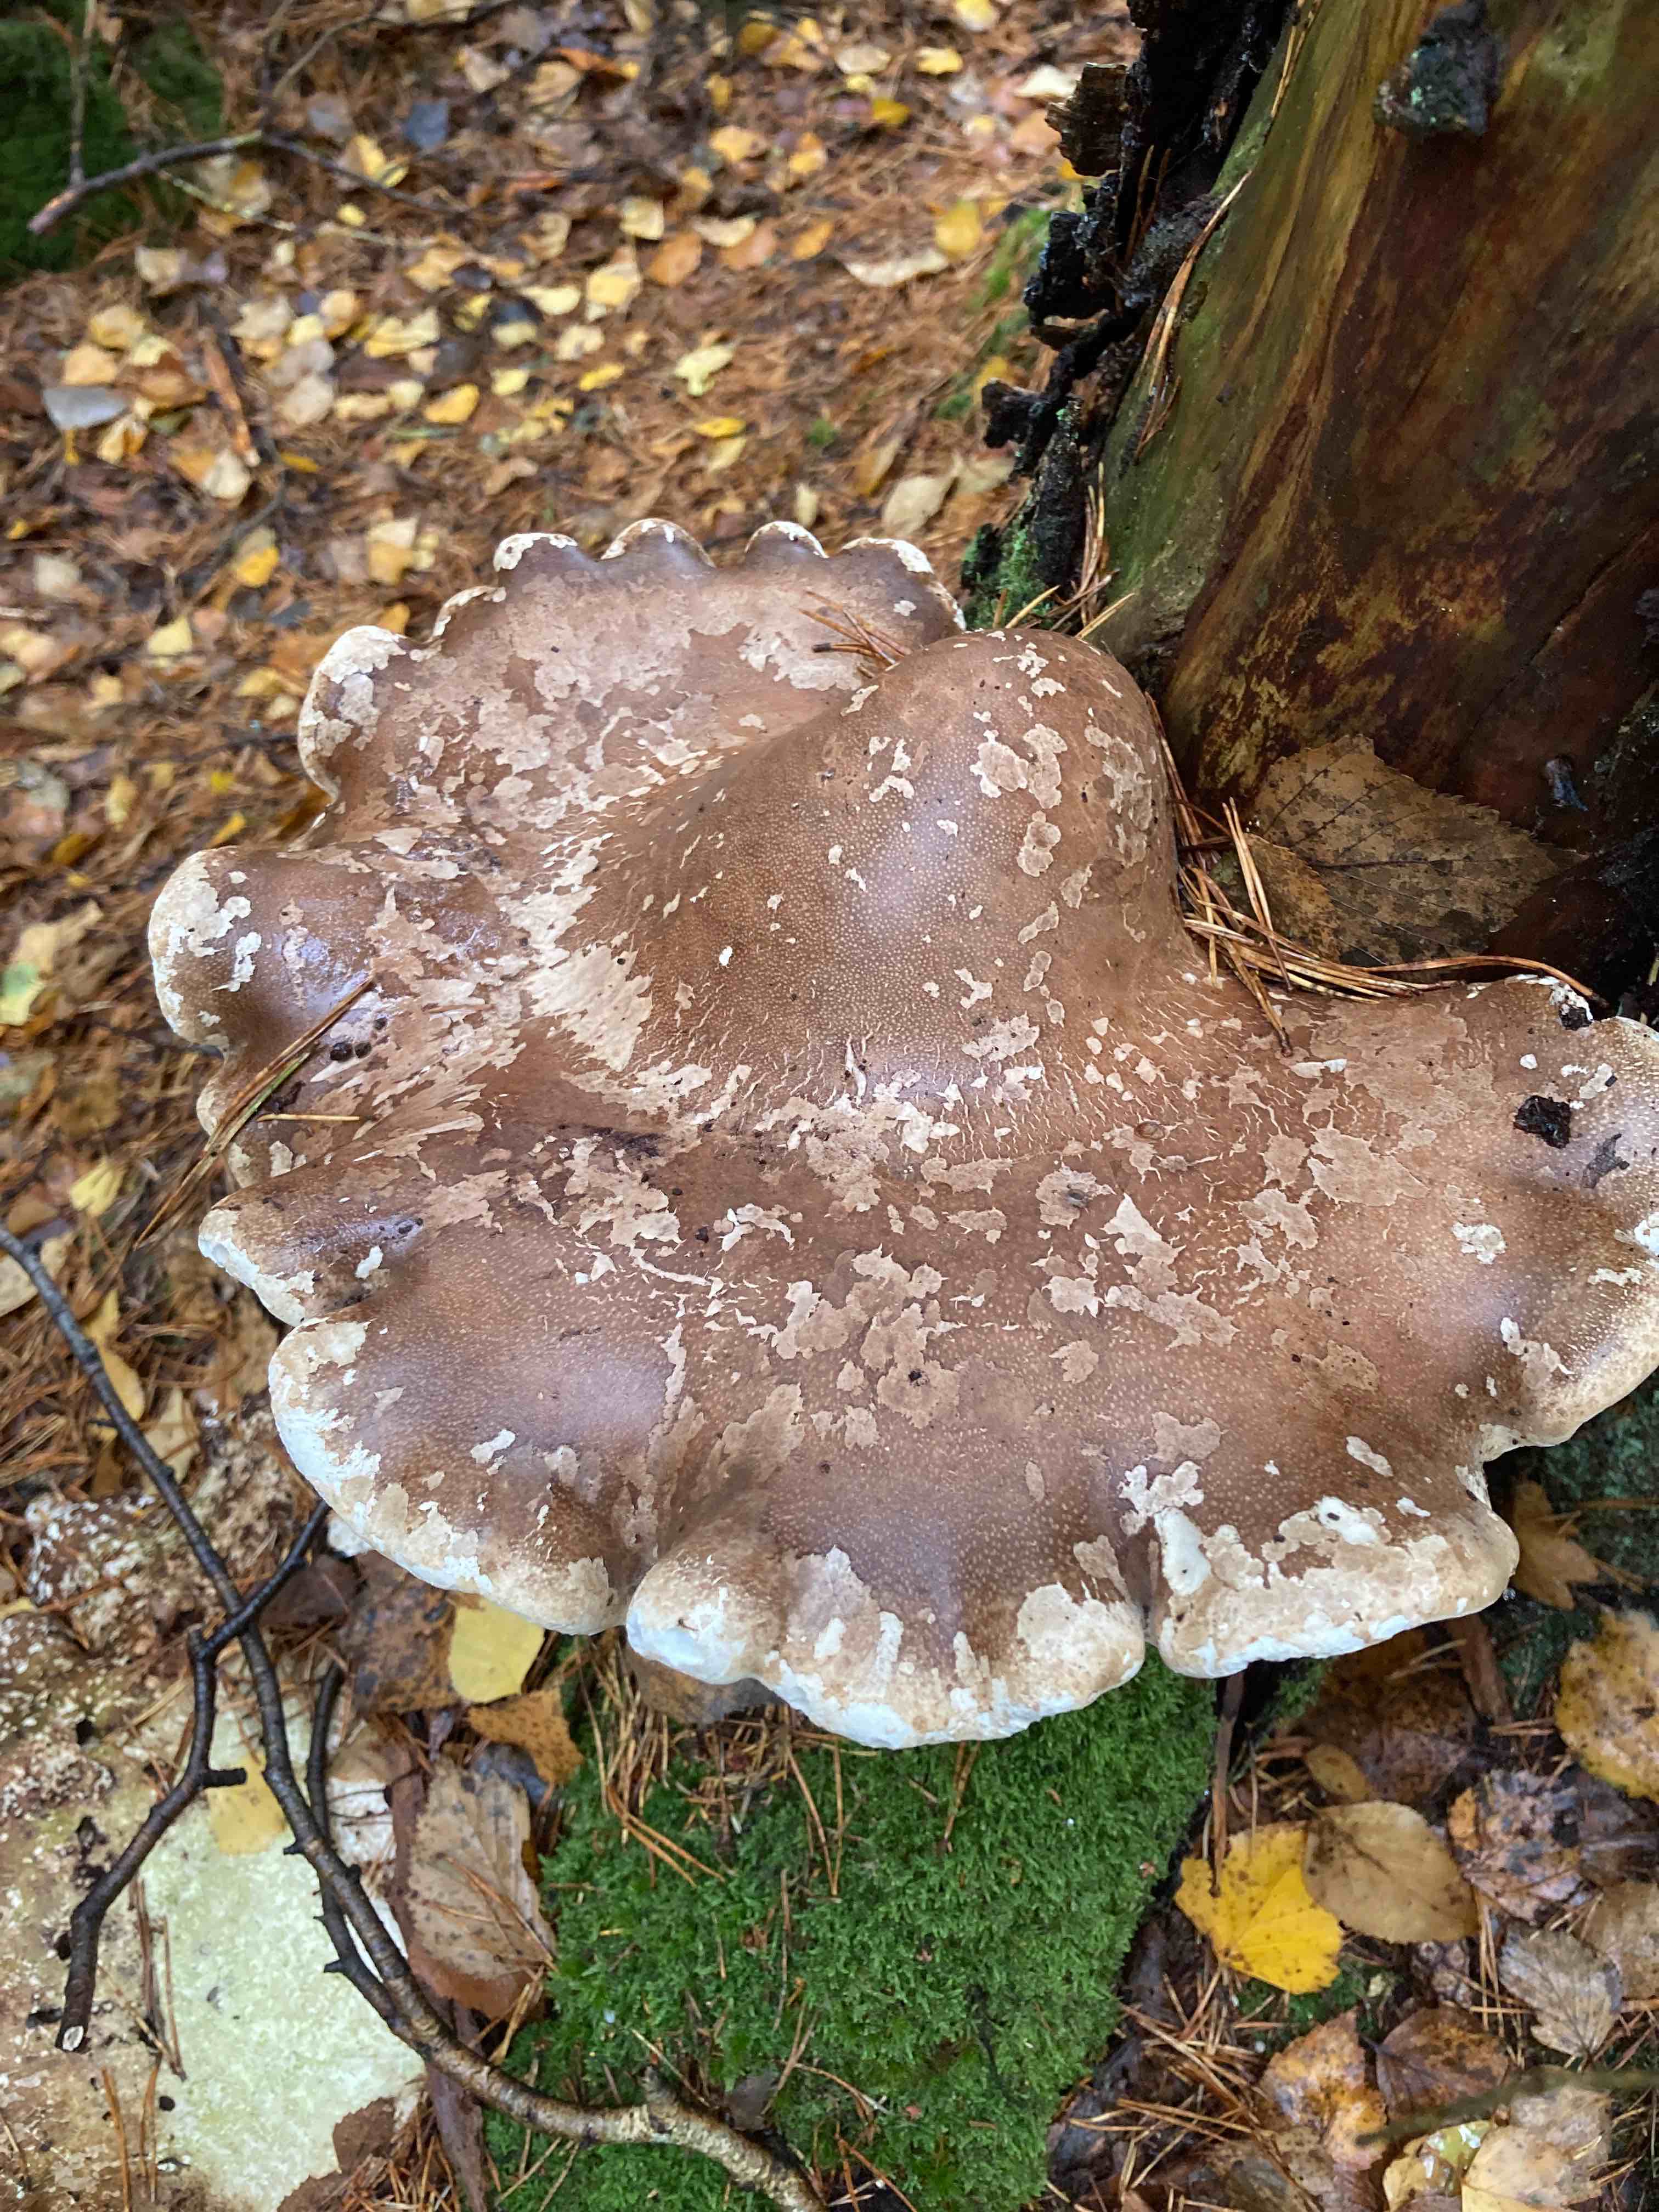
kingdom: Fungi
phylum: Basidiomycota
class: Agaricomycetes
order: Polyporales
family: Fomitopsidaceae
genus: Fomitopsis
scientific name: Fomitopsis betulina
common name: birkeporesvamp
